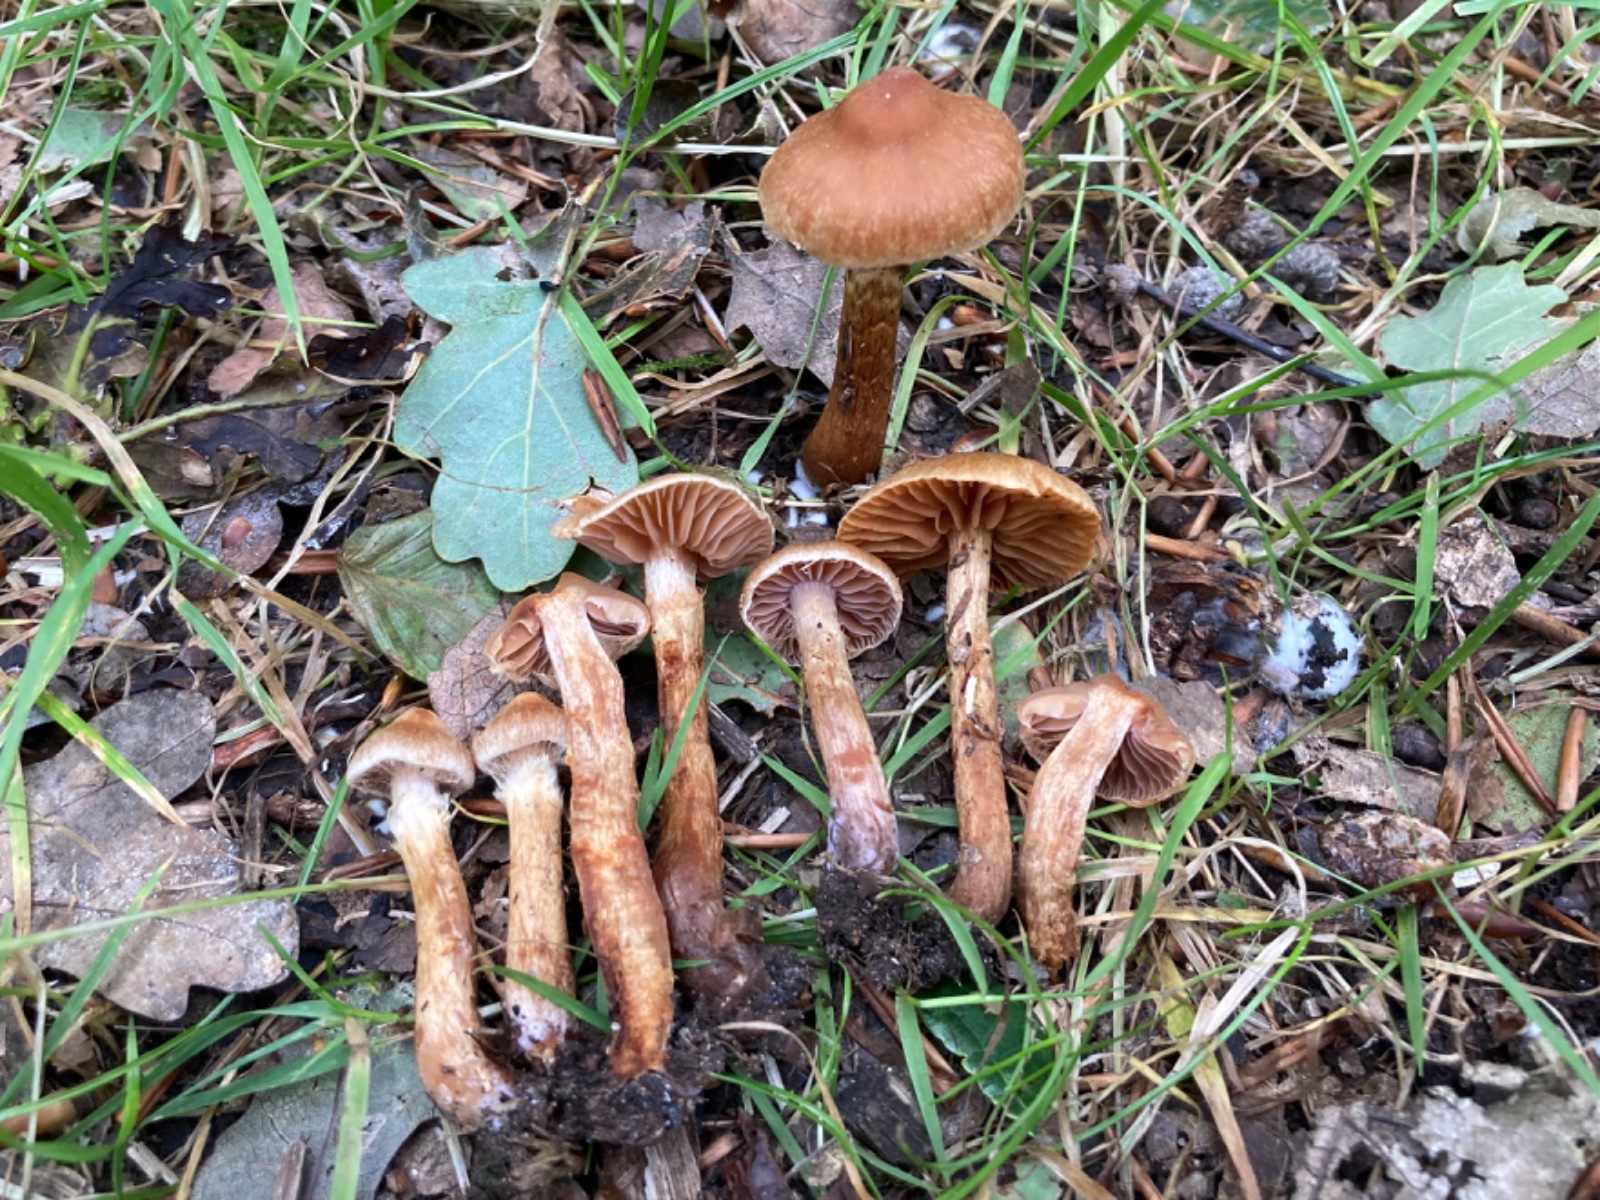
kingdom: Fungi
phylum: Basidiomycota
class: Agaricomycetes
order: Agaricales
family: Cortinariaceae
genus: Cortinarius
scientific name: Cortinarius lacustris
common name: siennapuklet slørhat
